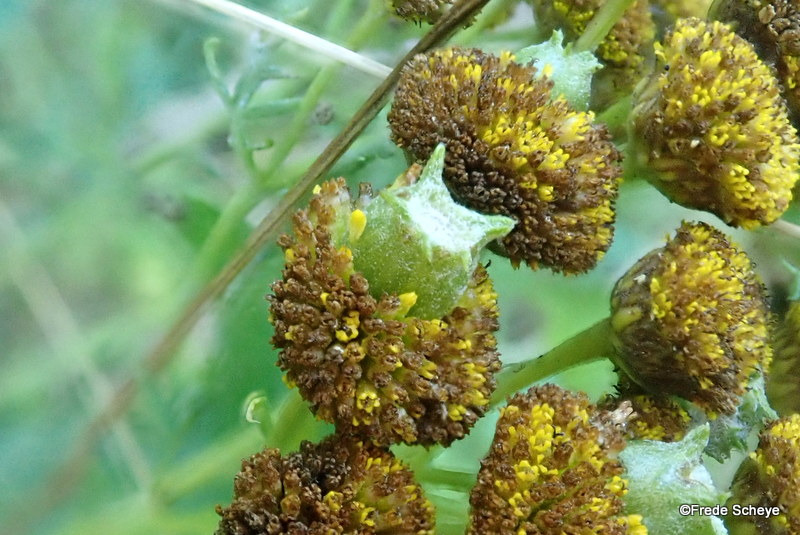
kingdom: Animalia
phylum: Arthropoda
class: Insecta
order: Diptera
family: Cecidomyiidae
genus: Rhopalomyia
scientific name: Rhopalomyia tanaceticolus
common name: Rejnfangalmyg
